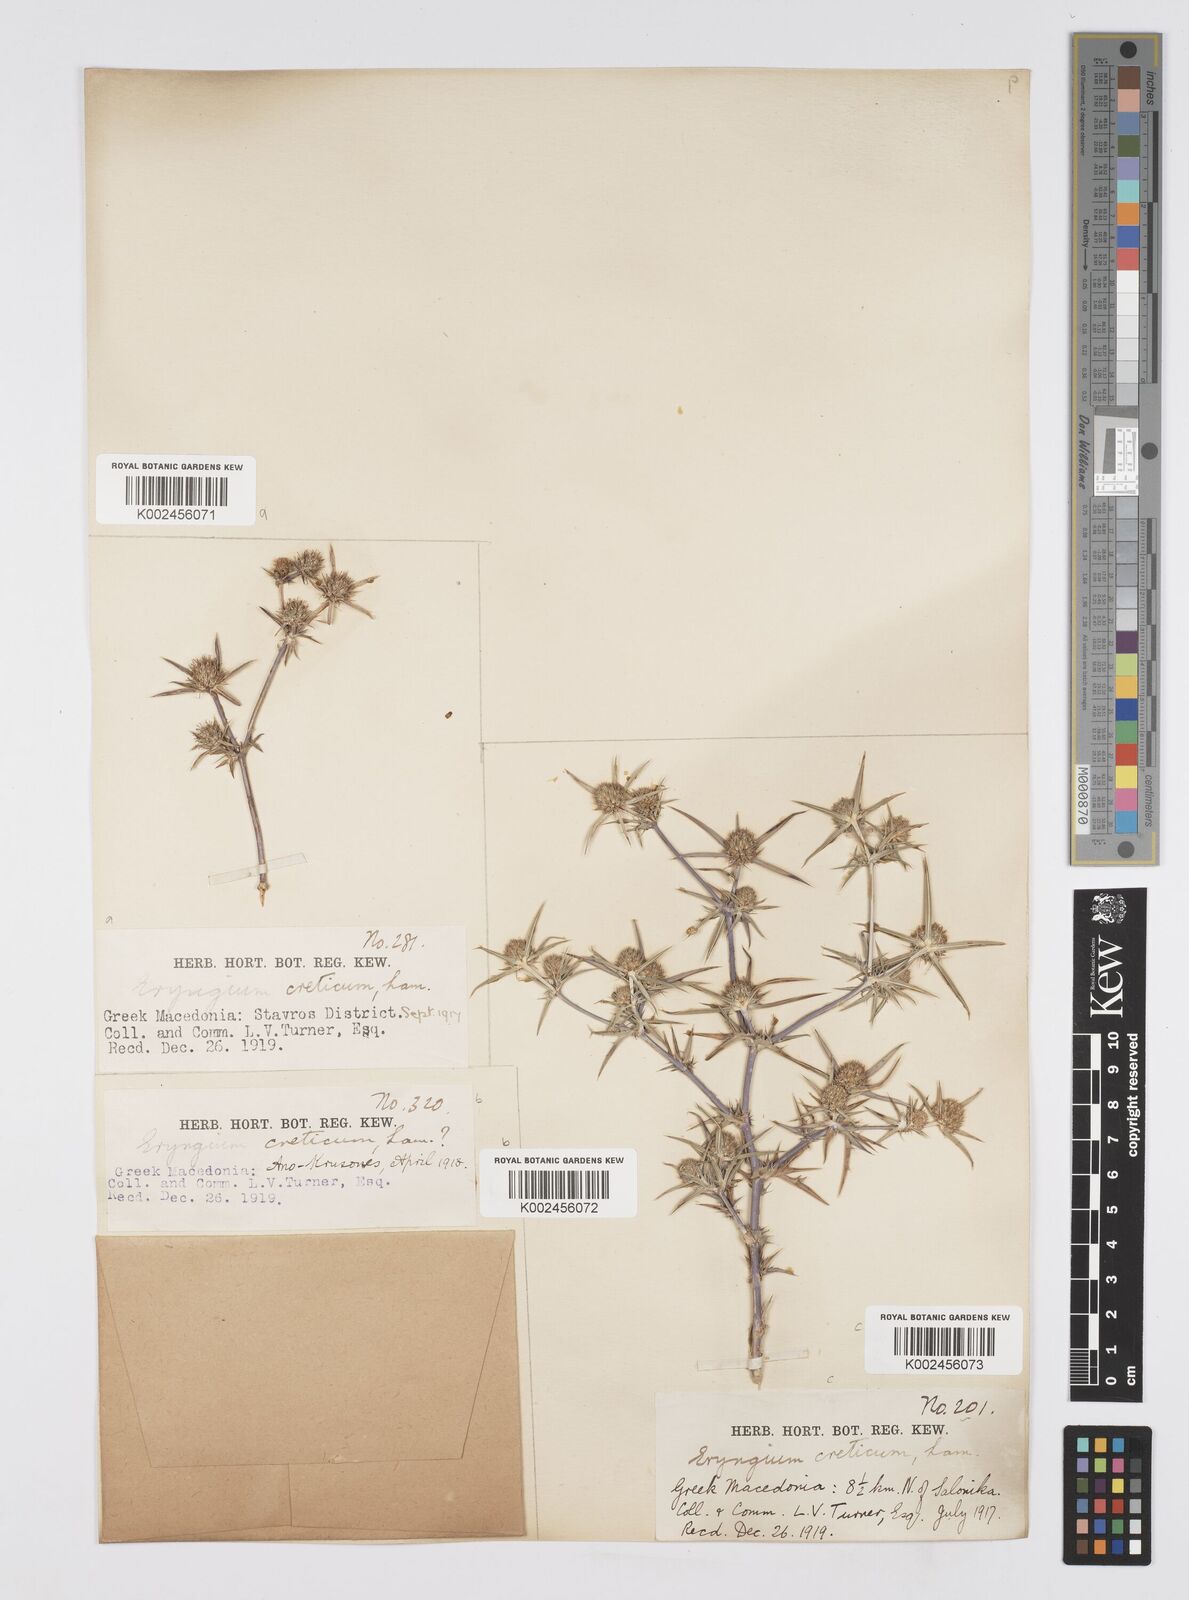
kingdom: Plantae
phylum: Tracheophyta
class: Magnoliopsida
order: Apiales
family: Apiaceae
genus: Eryngium
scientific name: Eryngium creticum
